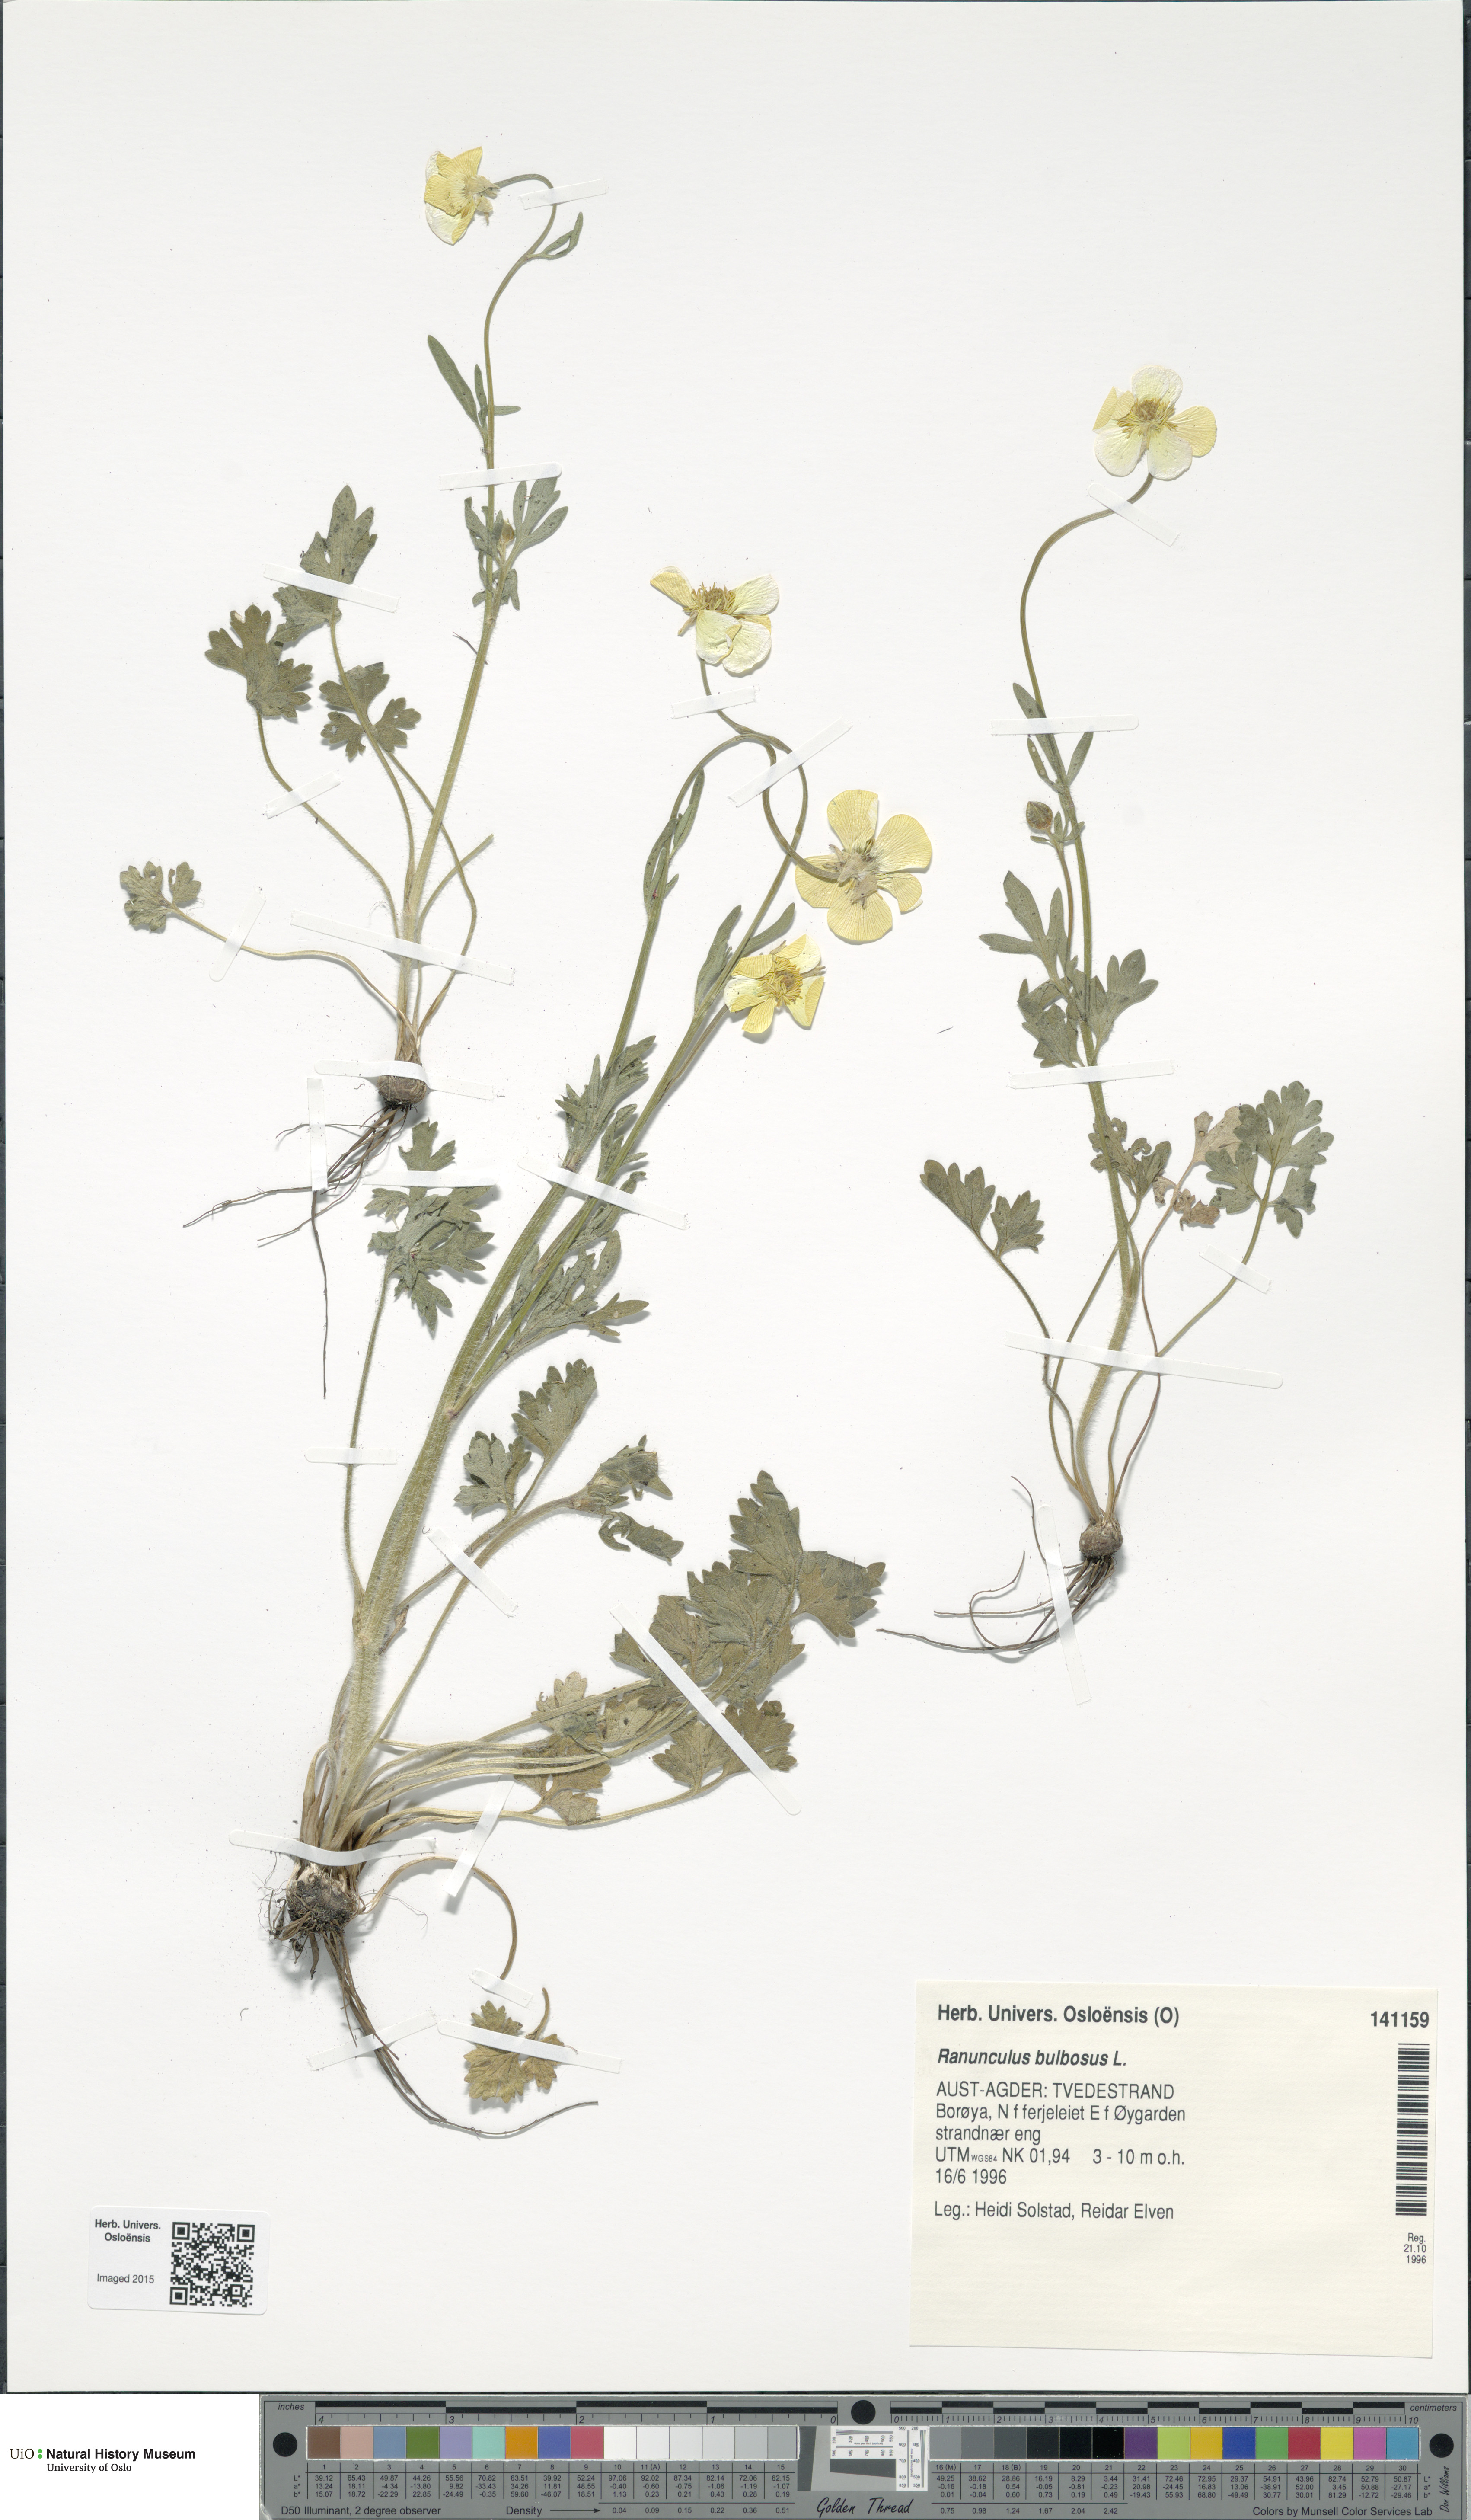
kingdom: Plantae
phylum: Tracheophyta
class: Magnoliopsida
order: Ranunculales
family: Ranunculaceae
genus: Ranunculus
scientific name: Ranunculus bulbosus
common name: Bulbous buttercup
